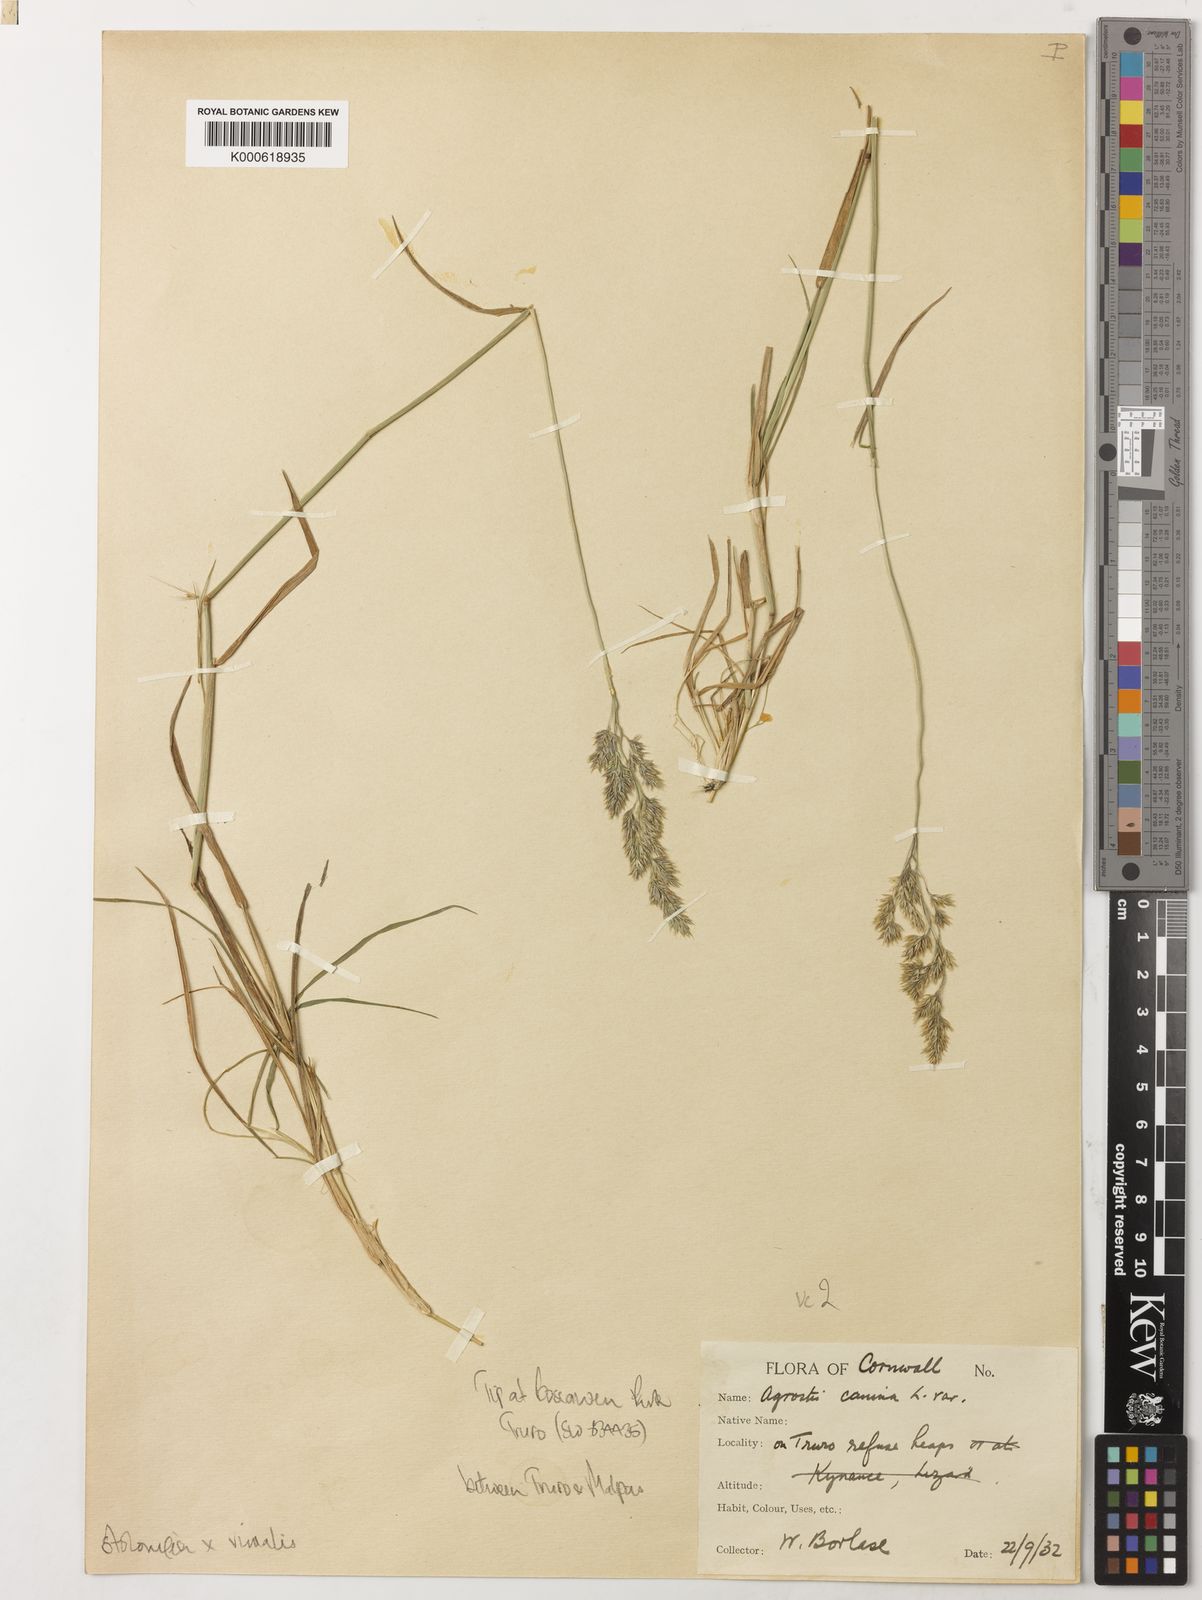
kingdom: Plantae
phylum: Tracheophyta
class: Liliopsida
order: Poales
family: Poaceae
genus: Agrostis
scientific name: Agrostis
